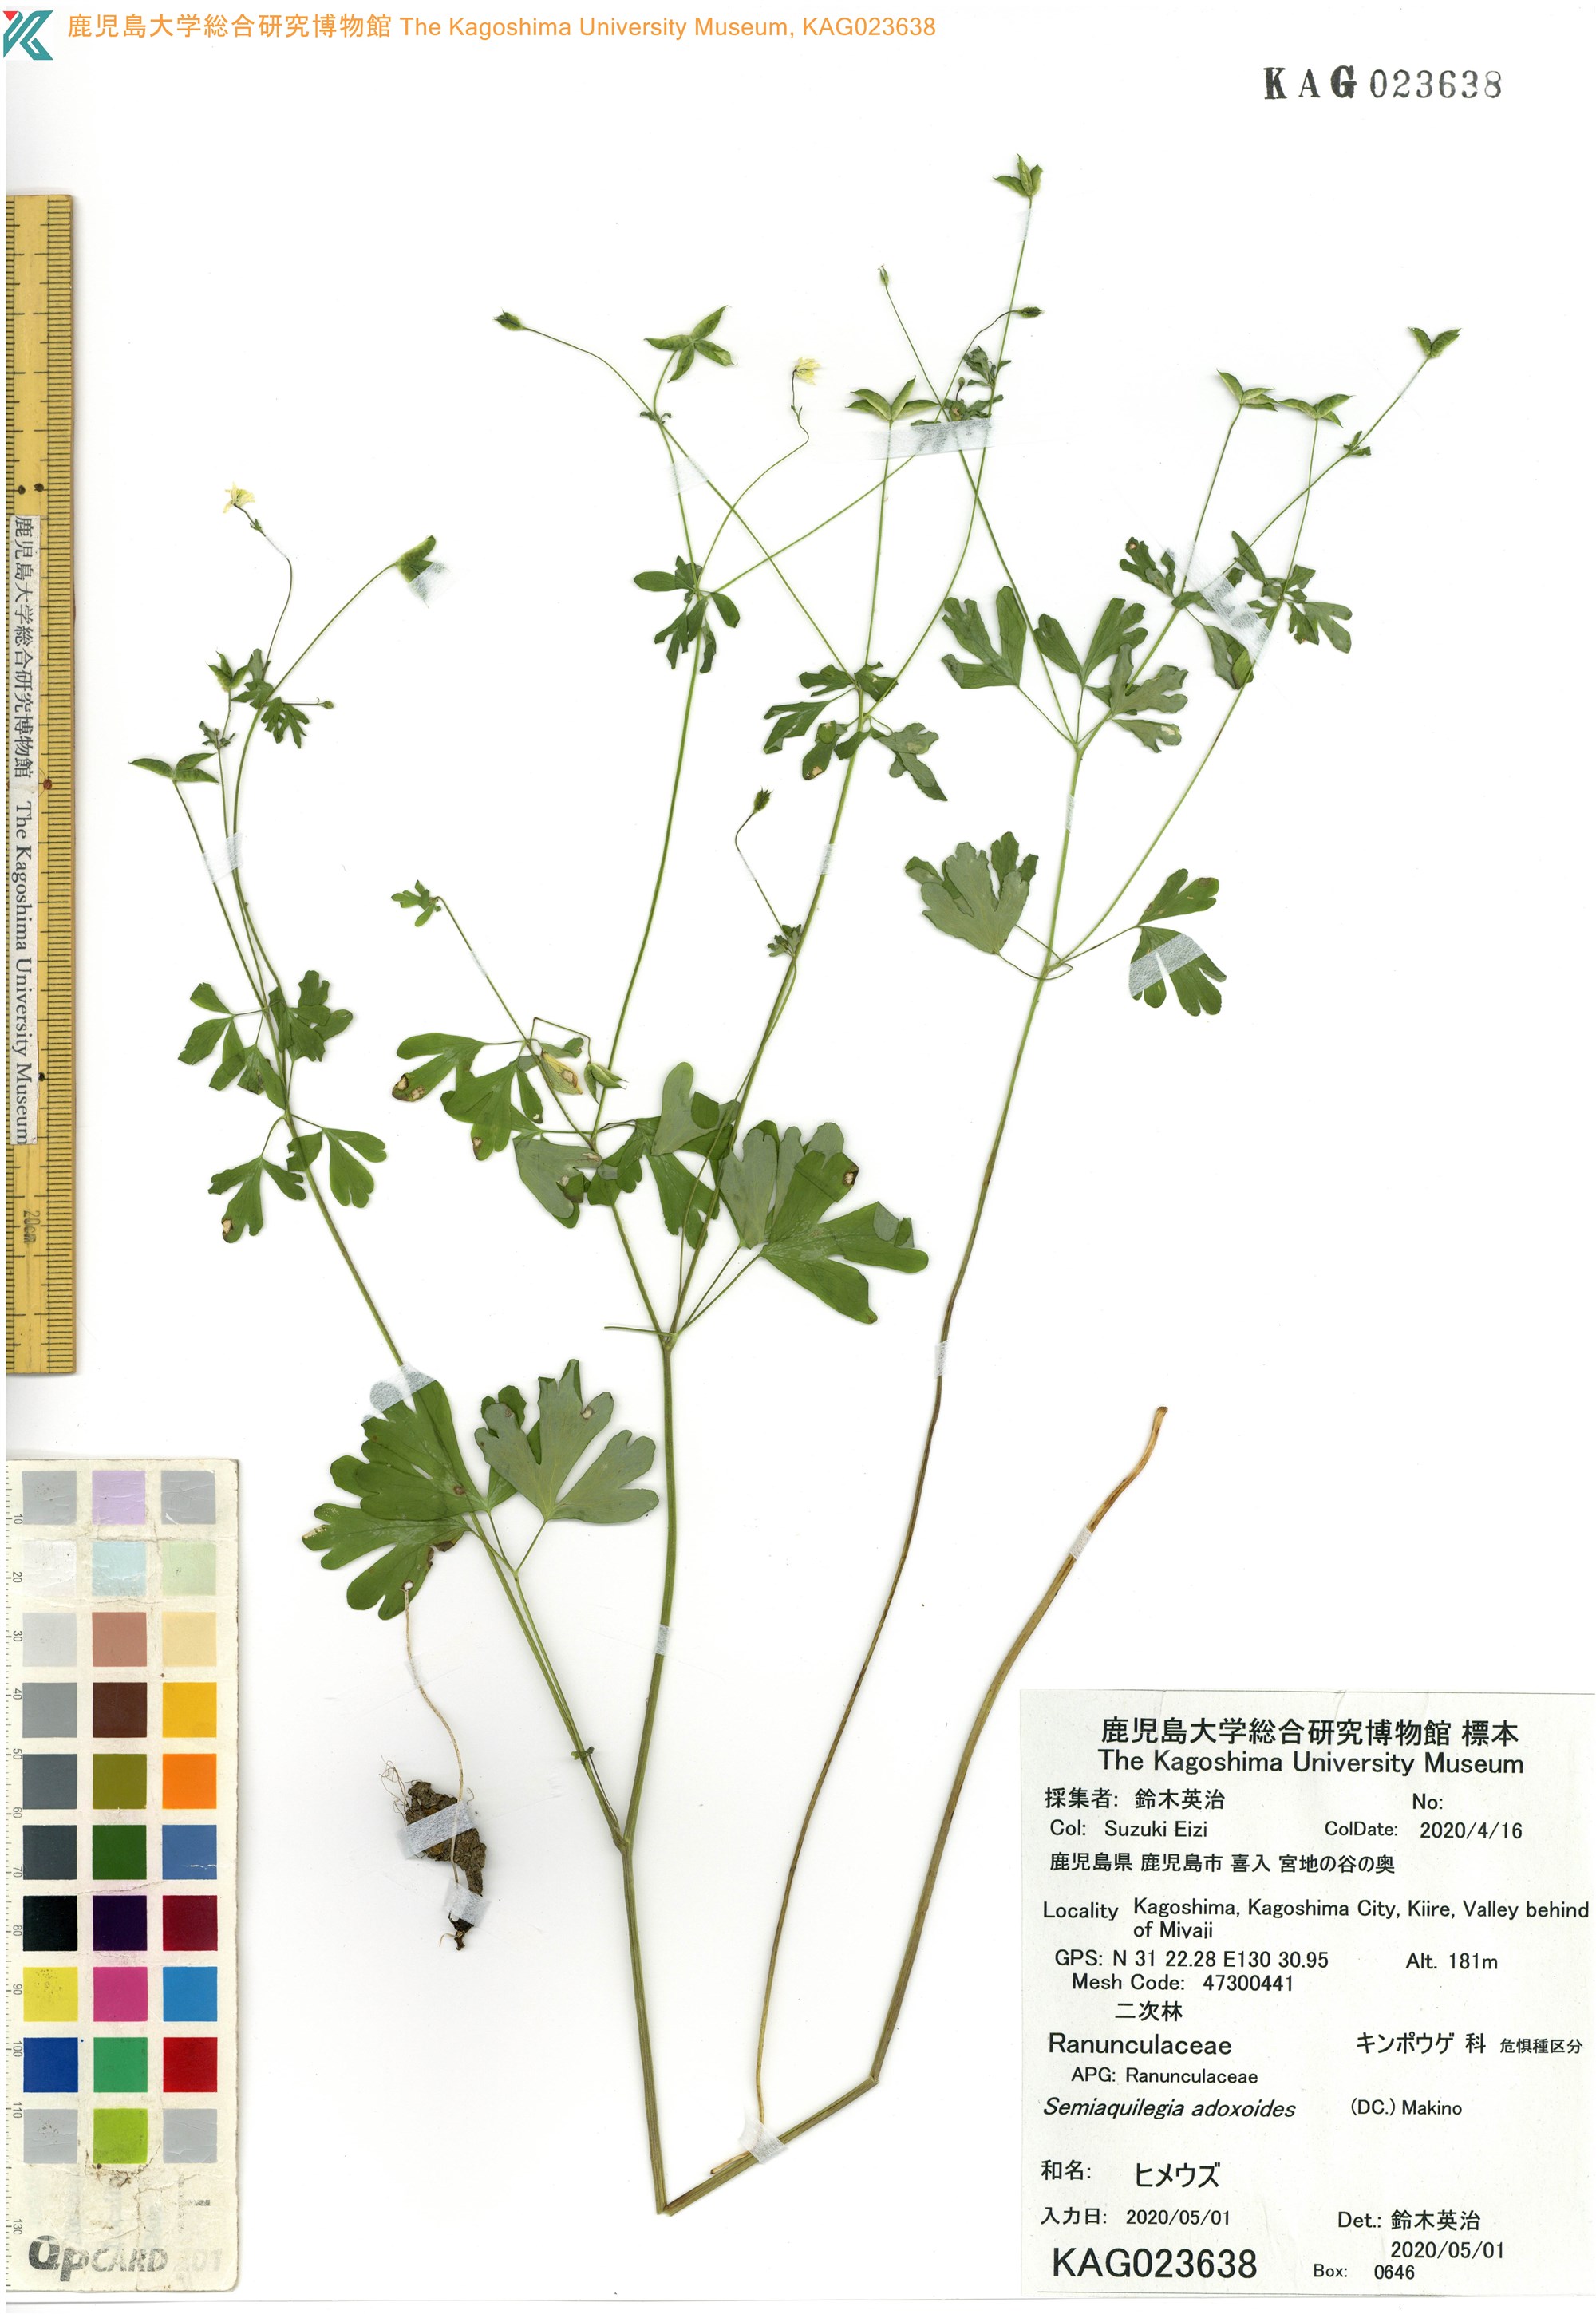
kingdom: Plantae
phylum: Tracheophyta
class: Magnoliopsida
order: Ranunculales
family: Ranunculaceae
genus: Semiaquilegia
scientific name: Semiaquilegia adoxoides
